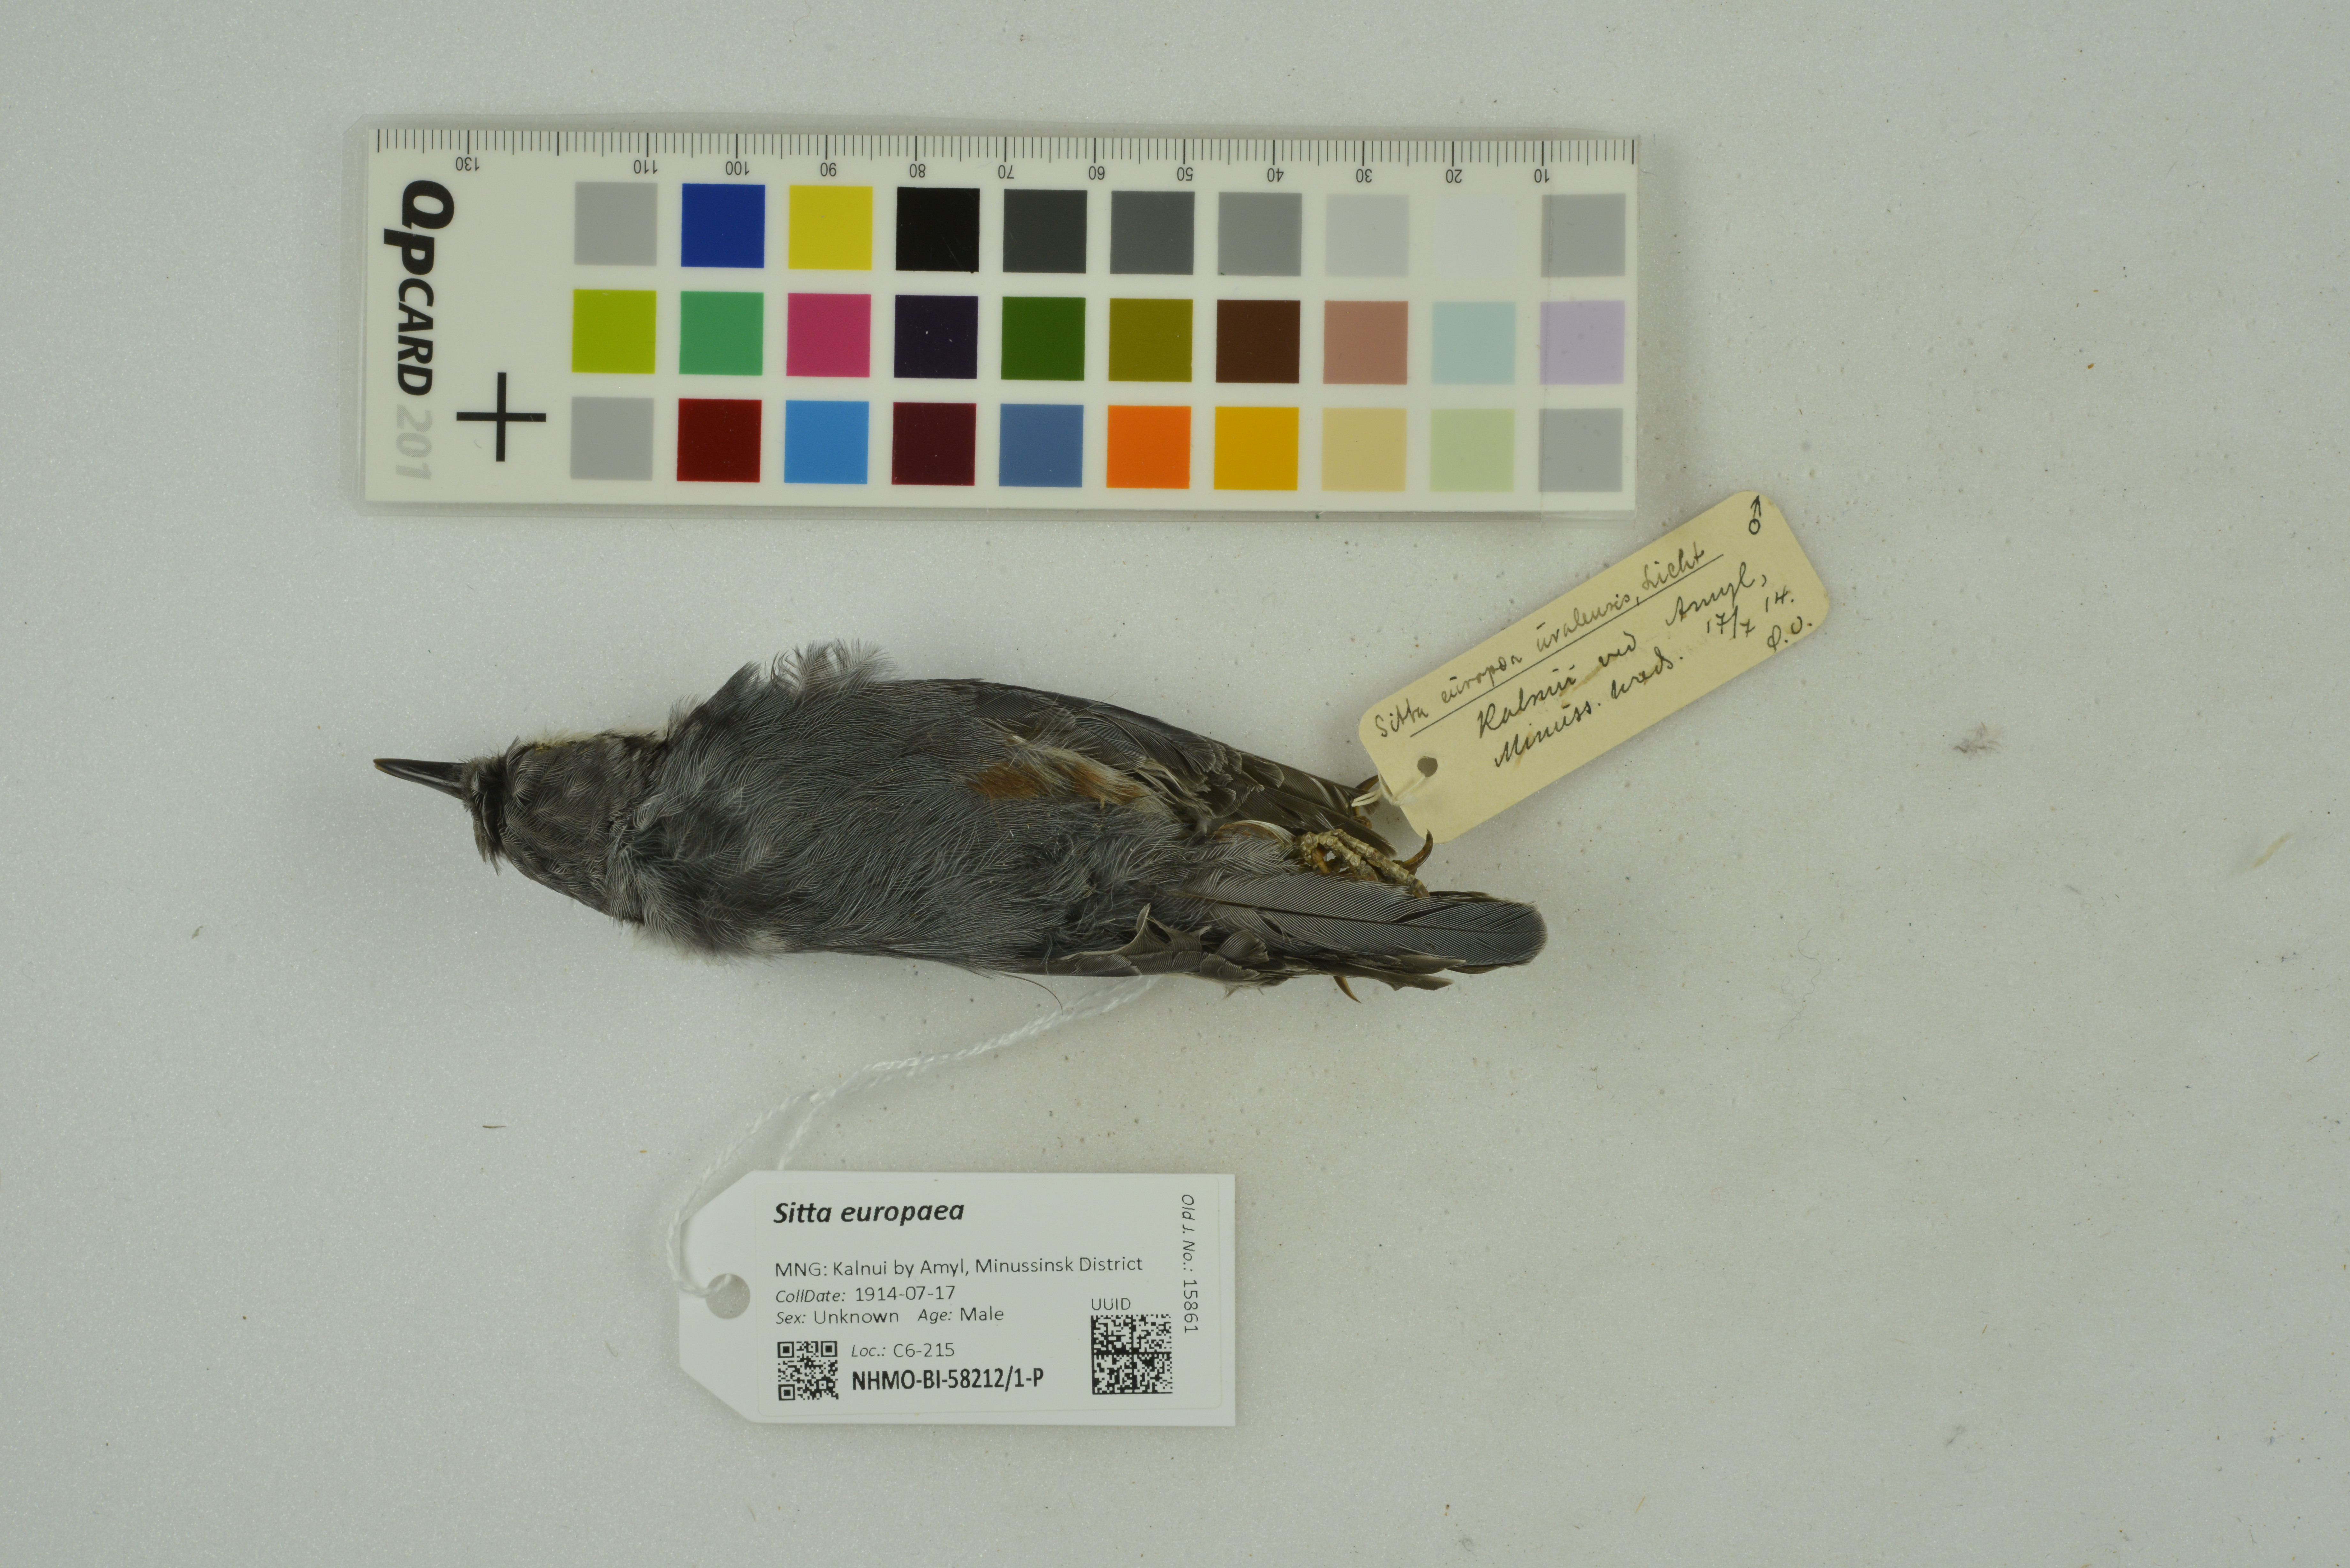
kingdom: Animalia
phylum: Chordata
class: Aves
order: Passeriformes
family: Sittidae
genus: Sitta
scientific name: Sitta europaea
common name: Eurasian nuthatch
